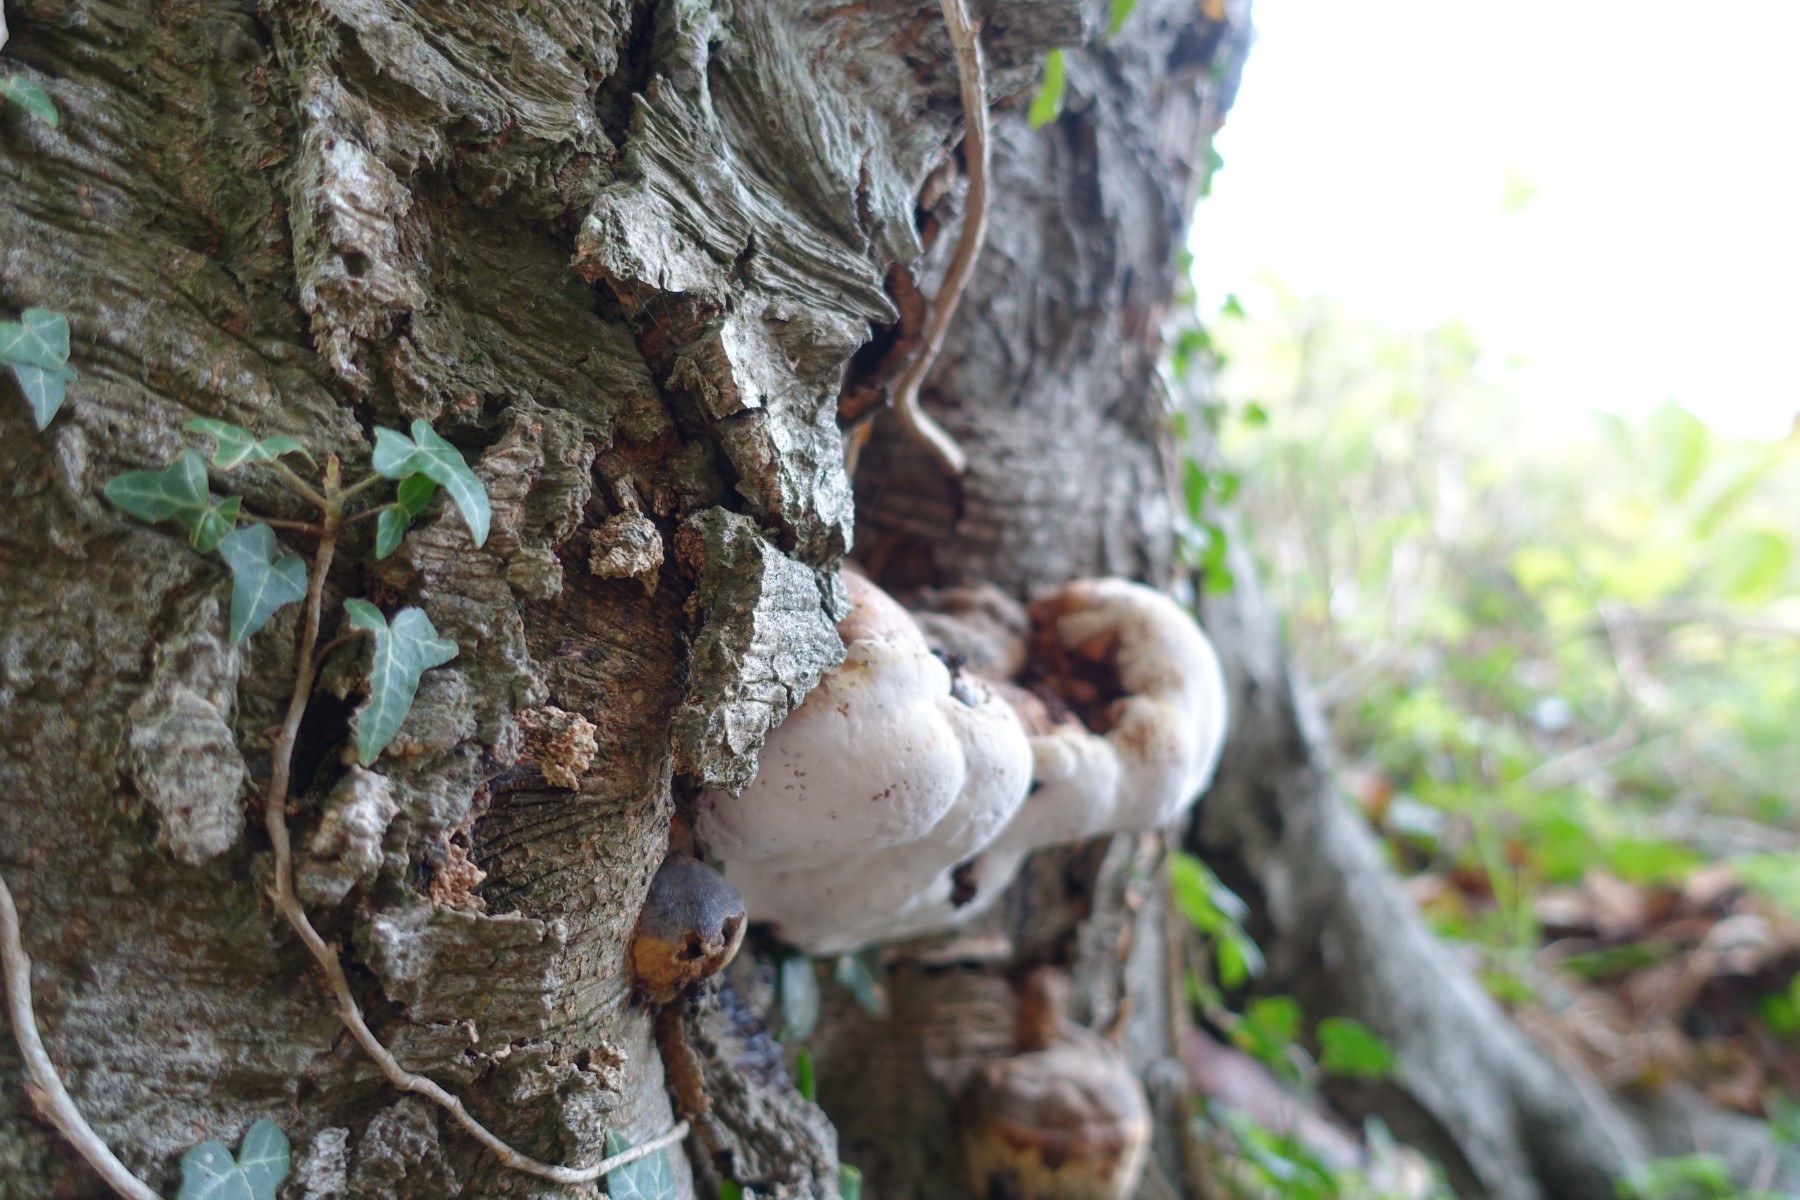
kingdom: Fungi
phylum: Basidiomycota
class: Agaricomycetes
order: Polyporales
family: Polyporaceae
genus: Ganoderma
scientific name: Ganoderma adspersum
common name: grov lakporesvamp
